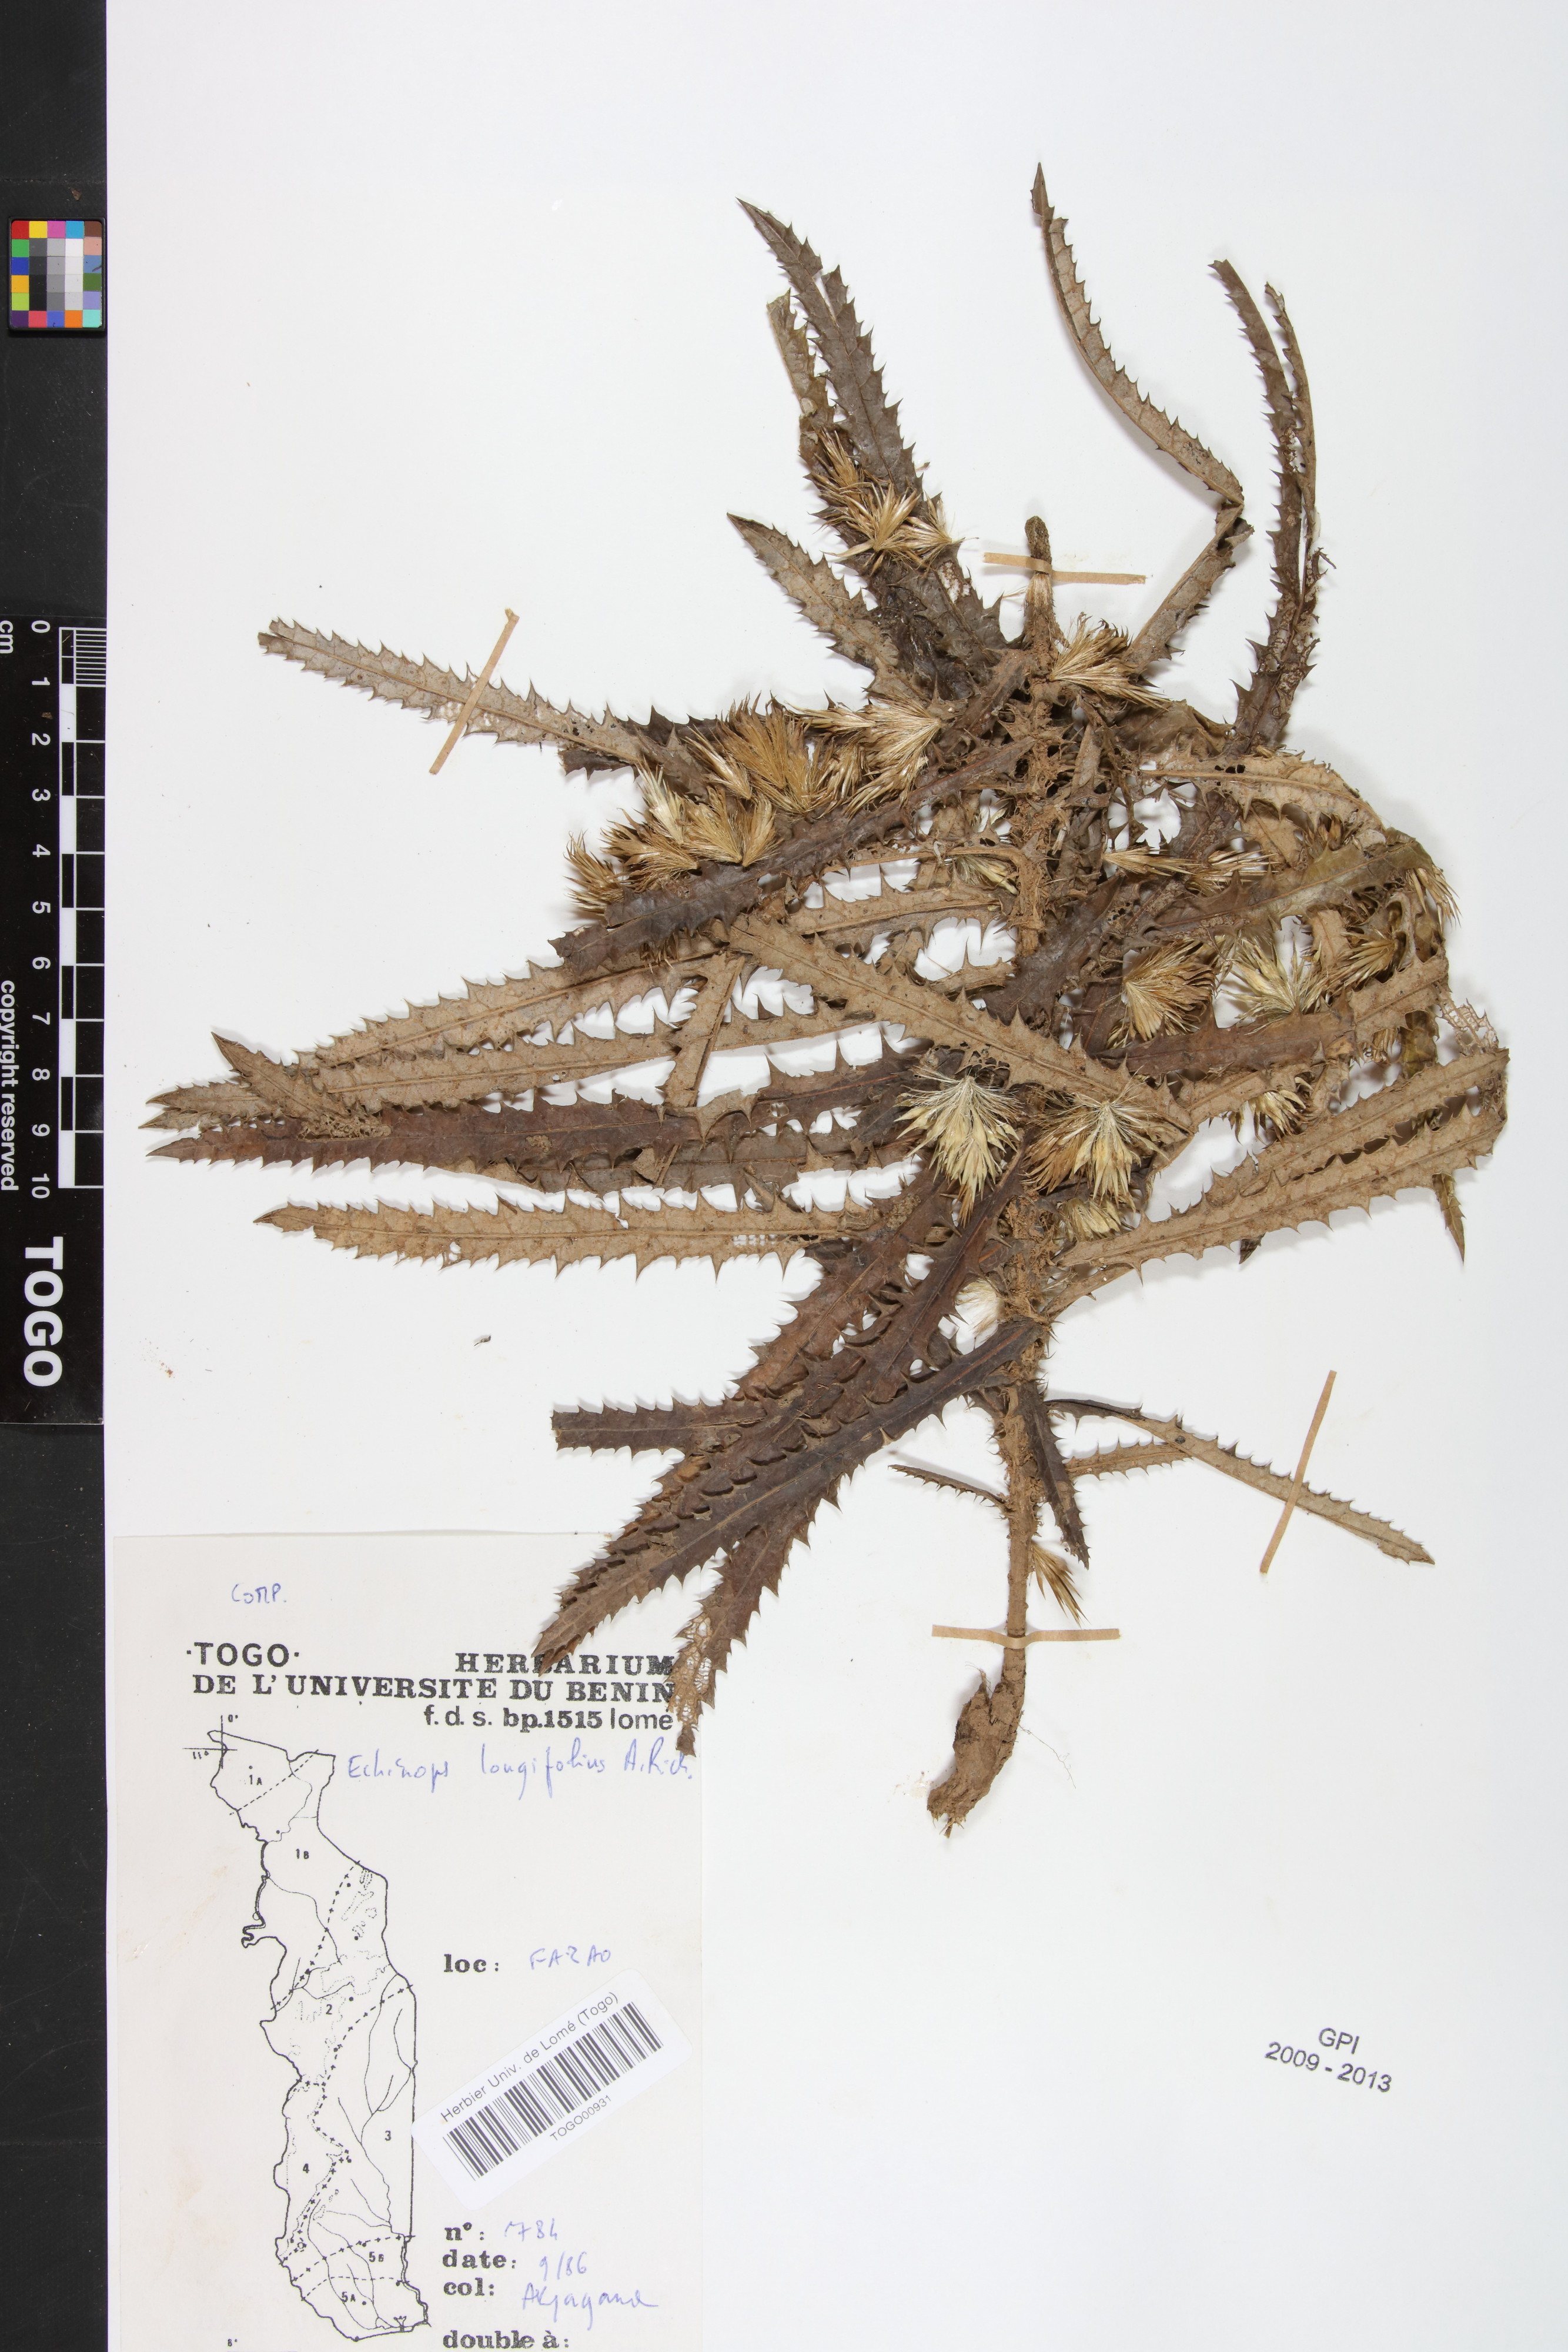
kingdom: Plantae
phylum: Tracheophyta
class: Magnoliopsida
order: Asterales
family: Asteraceae
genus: Echinops
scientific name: Echinops longifolius
